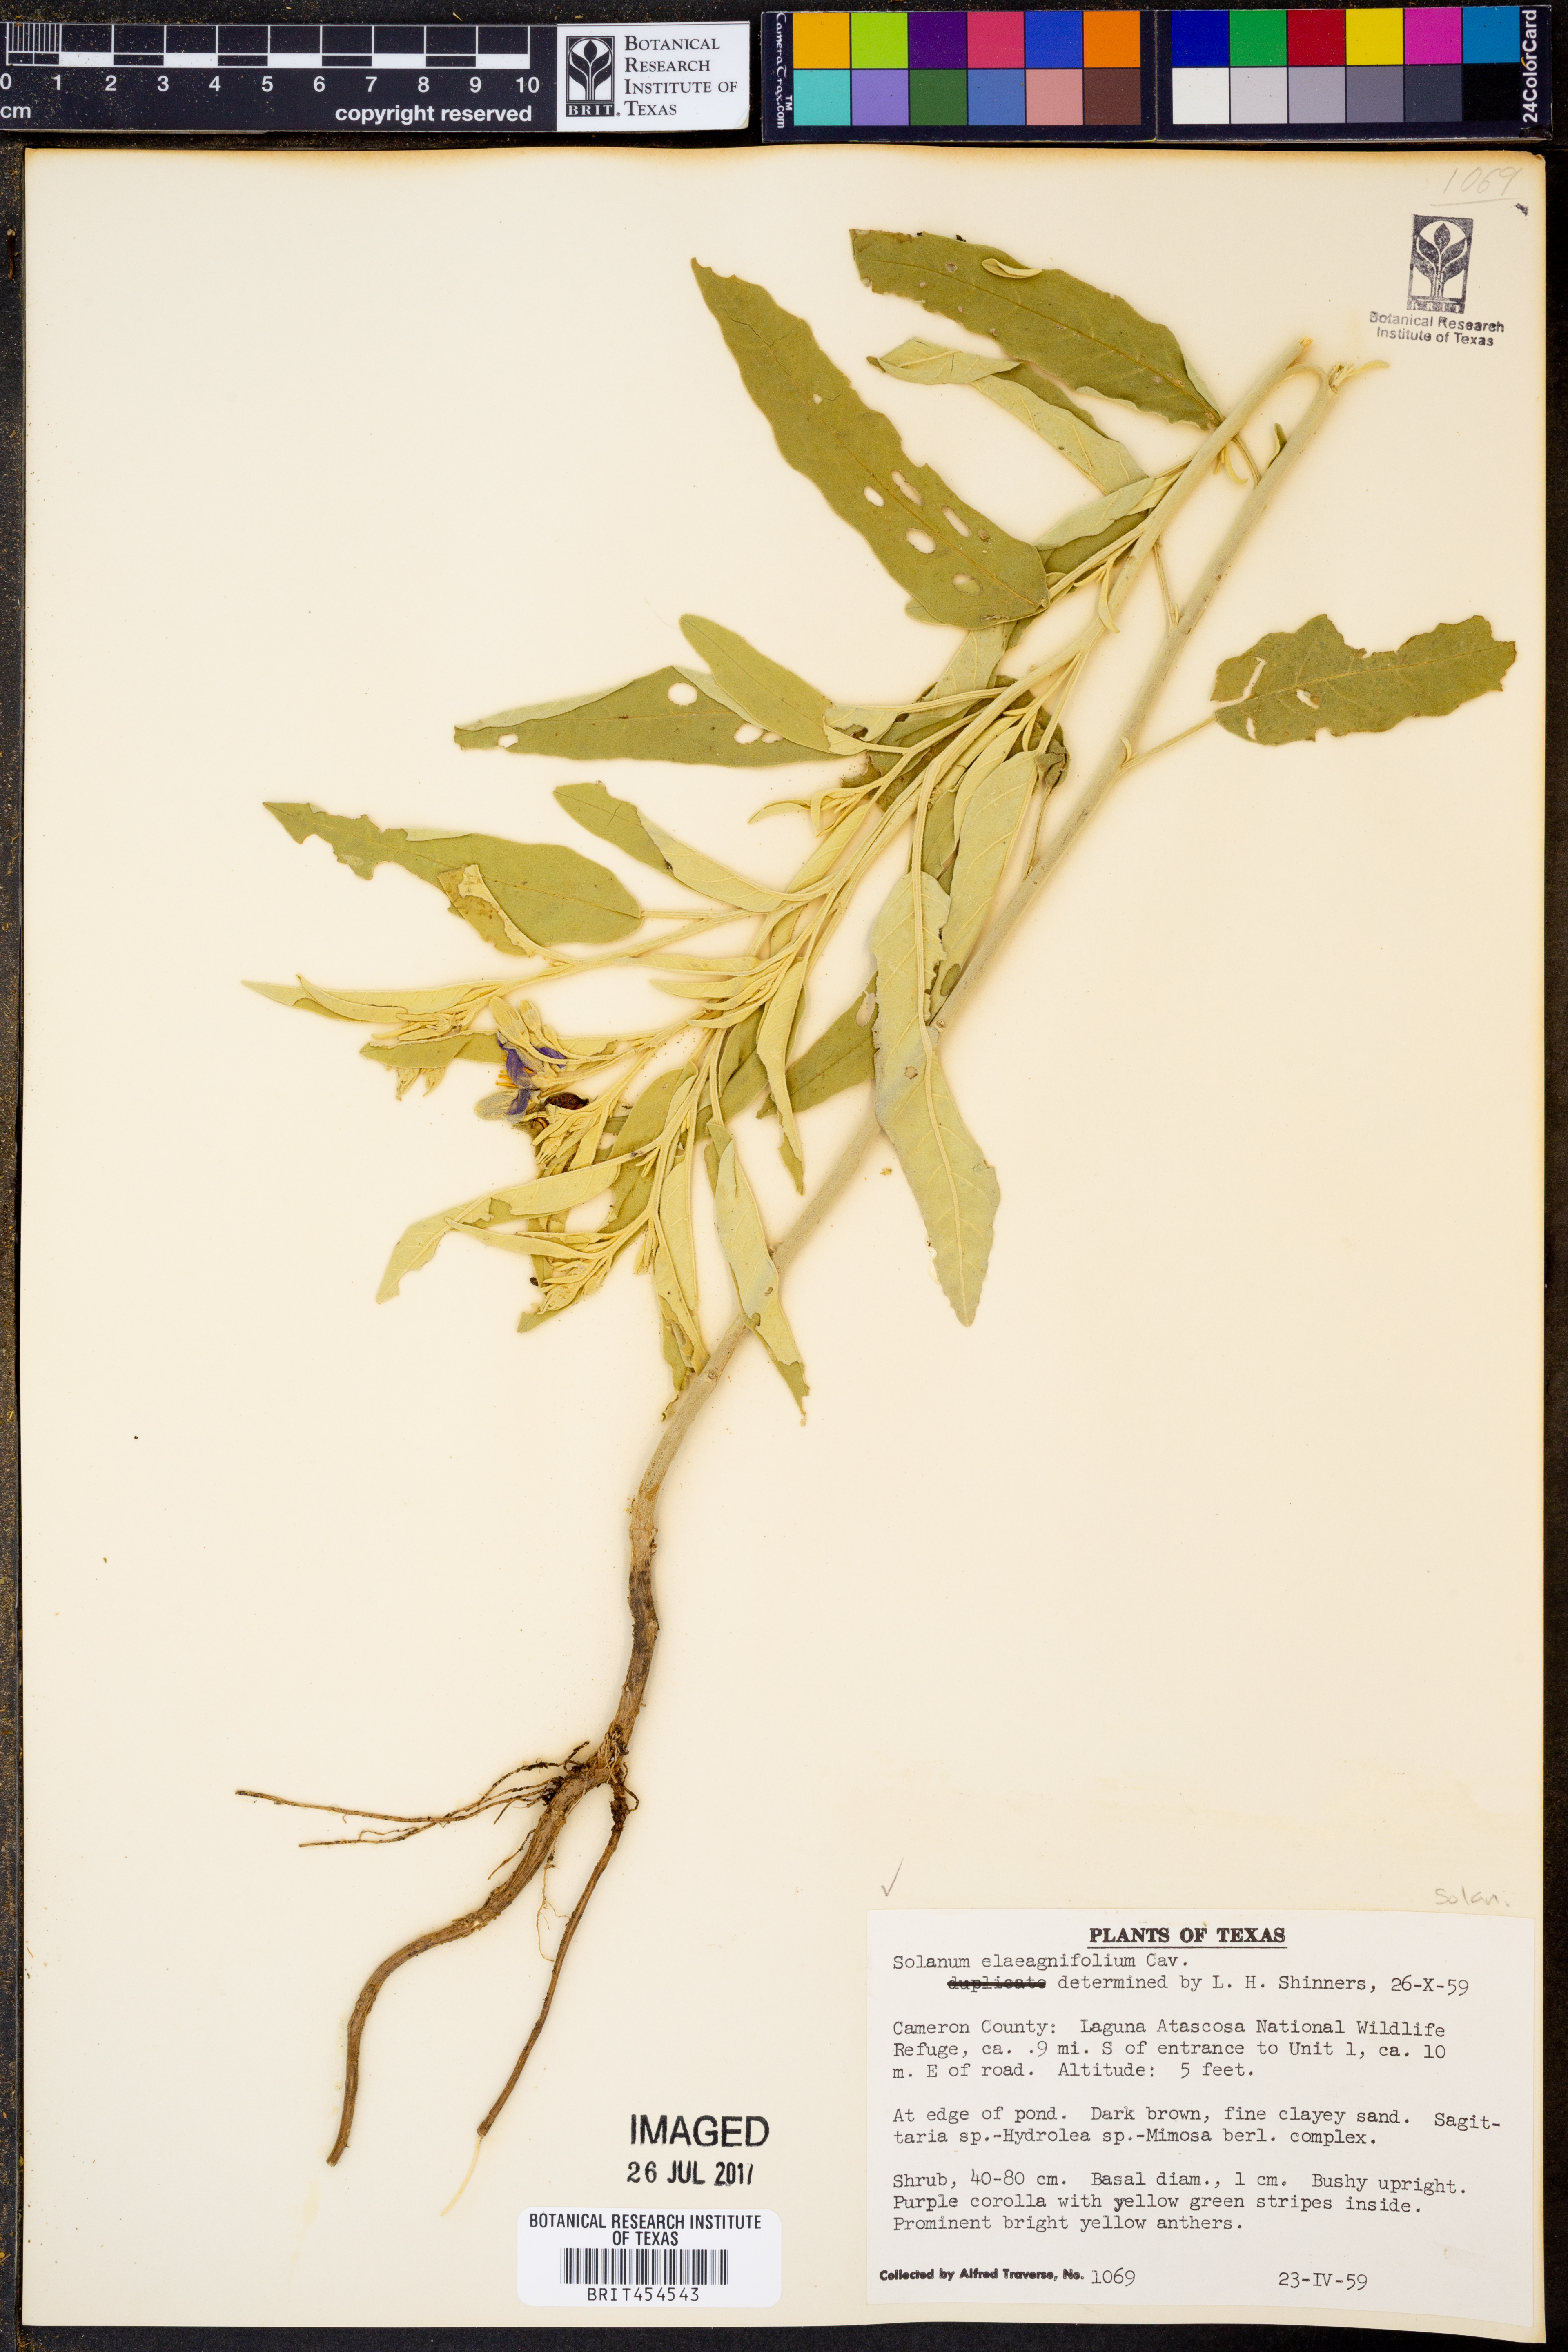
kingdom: Plantae
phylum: Tracheophyta
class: Magnoliopsida
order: Solanales
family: Solanaceae
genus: Solanum
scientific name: Solanum elaeagnifolium
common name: Silverleaf nightshade
